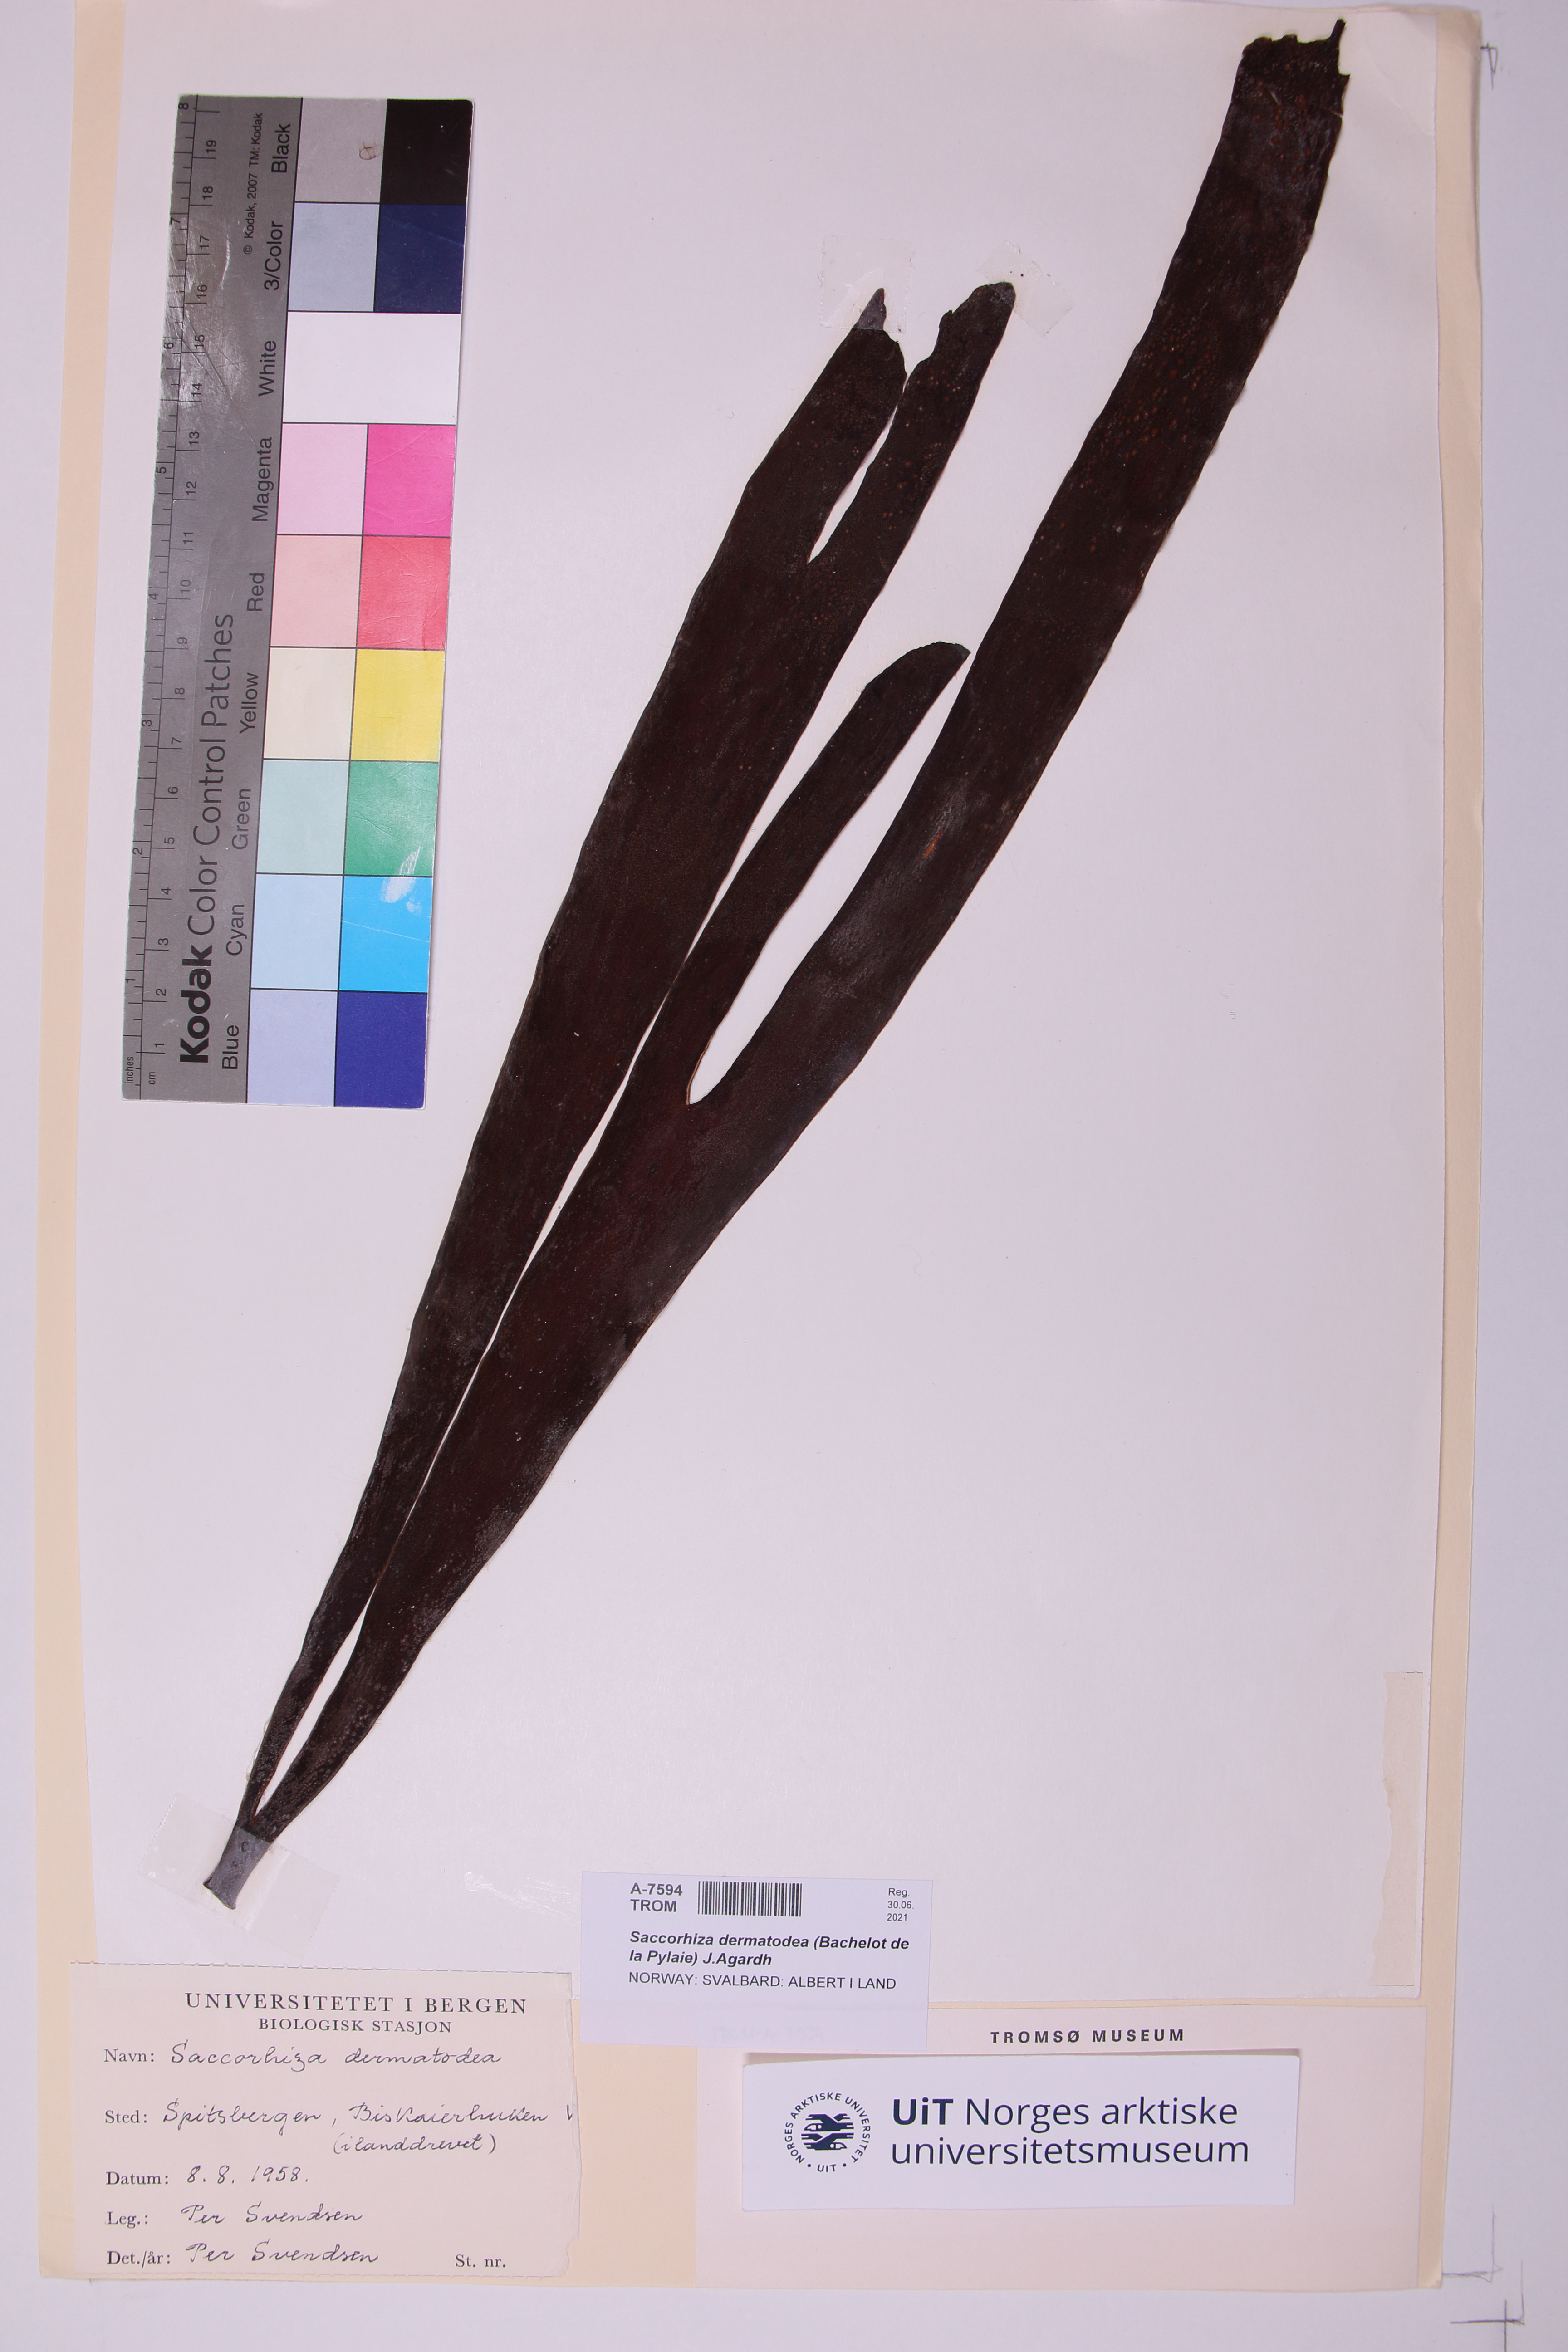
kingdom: Chromista
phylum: Ochrophyta
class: Phaeophyceae
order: Tilopteridales
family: Phyllariaceae
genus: Saccorhiza
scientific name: Saccorhiza dermatodea
